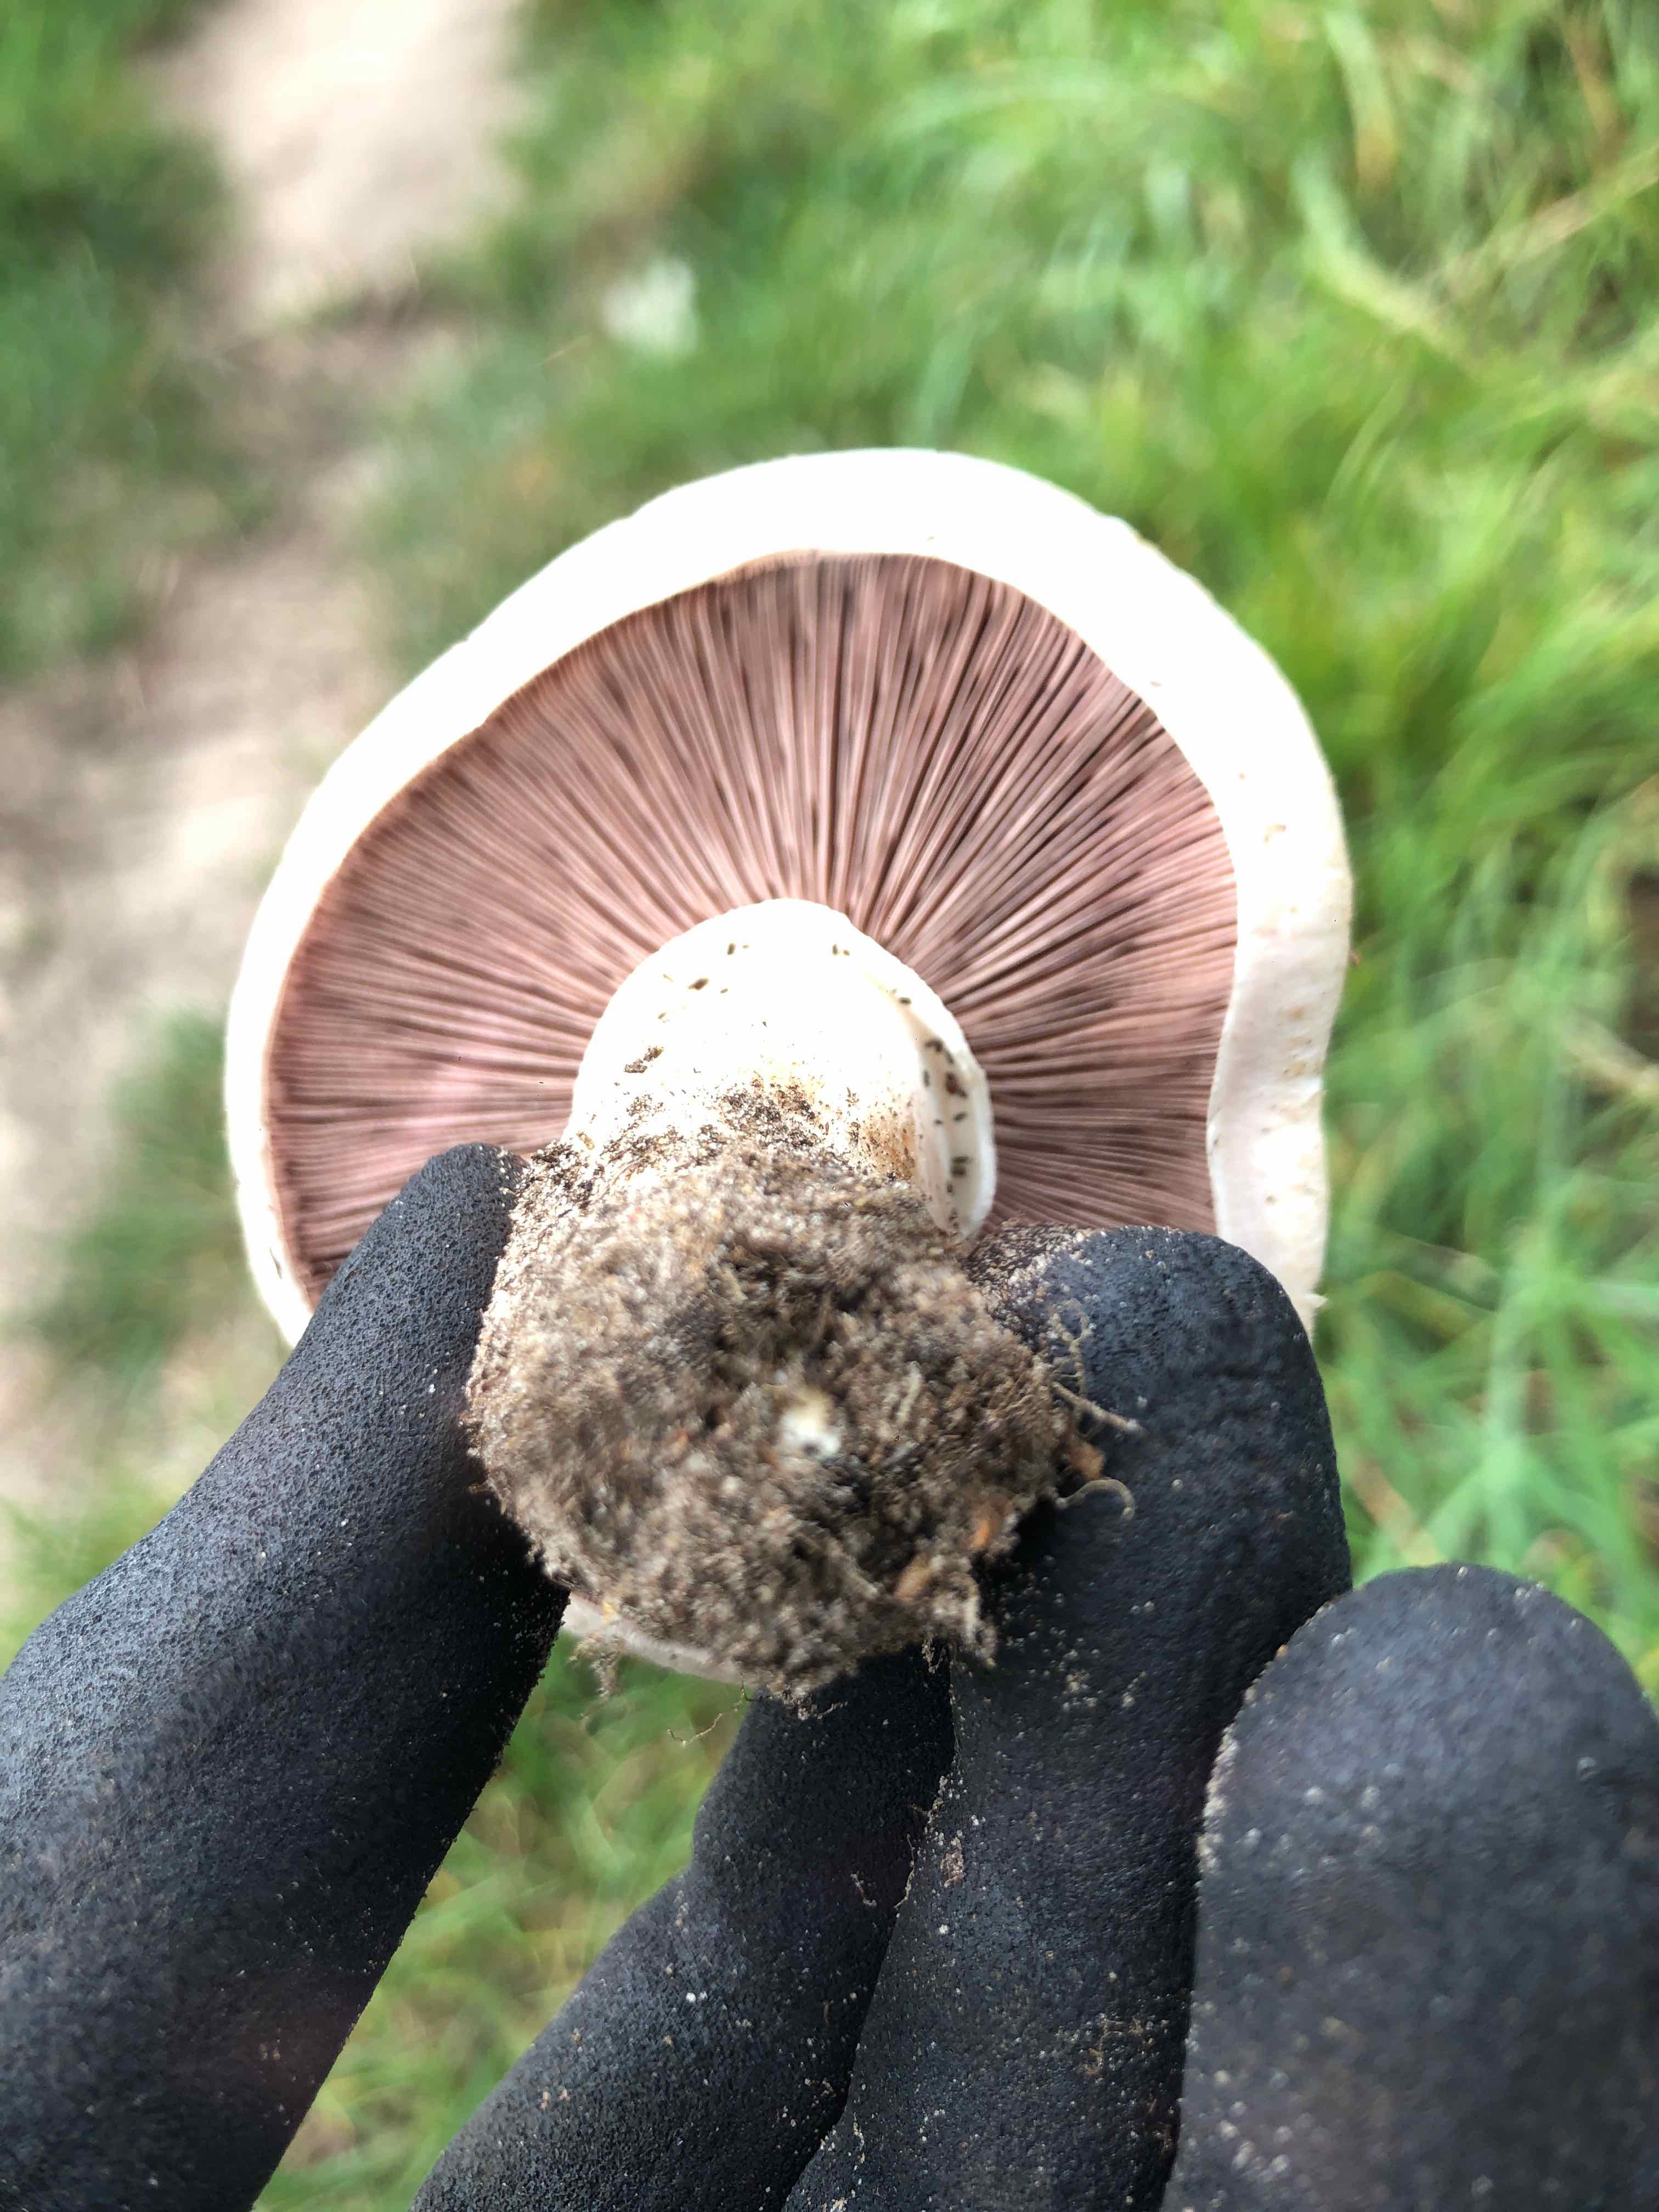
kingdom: Fungi
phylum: Basidiomycota
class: Agaricomycetes
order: Agaricales
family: Agaricaceae
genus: Agaricus
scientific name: Agaricus litoralis
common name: kyst-champignon
